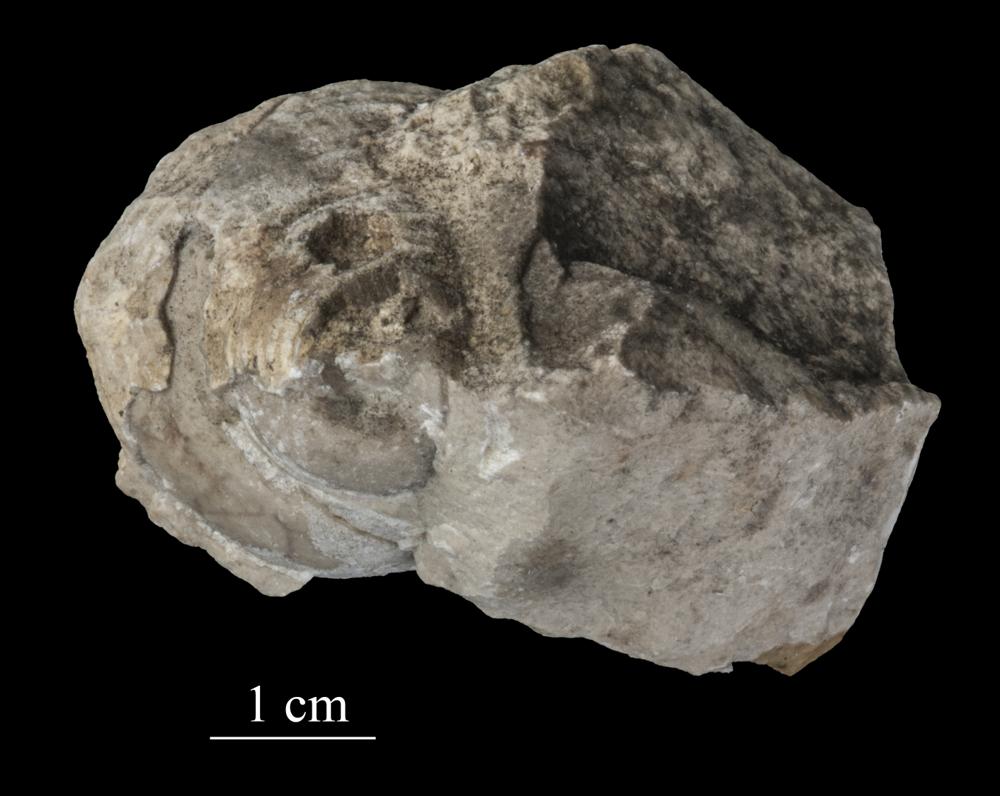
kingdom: Animalia
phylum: Mollusca
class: Gastropoda
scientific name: Gastropoda
